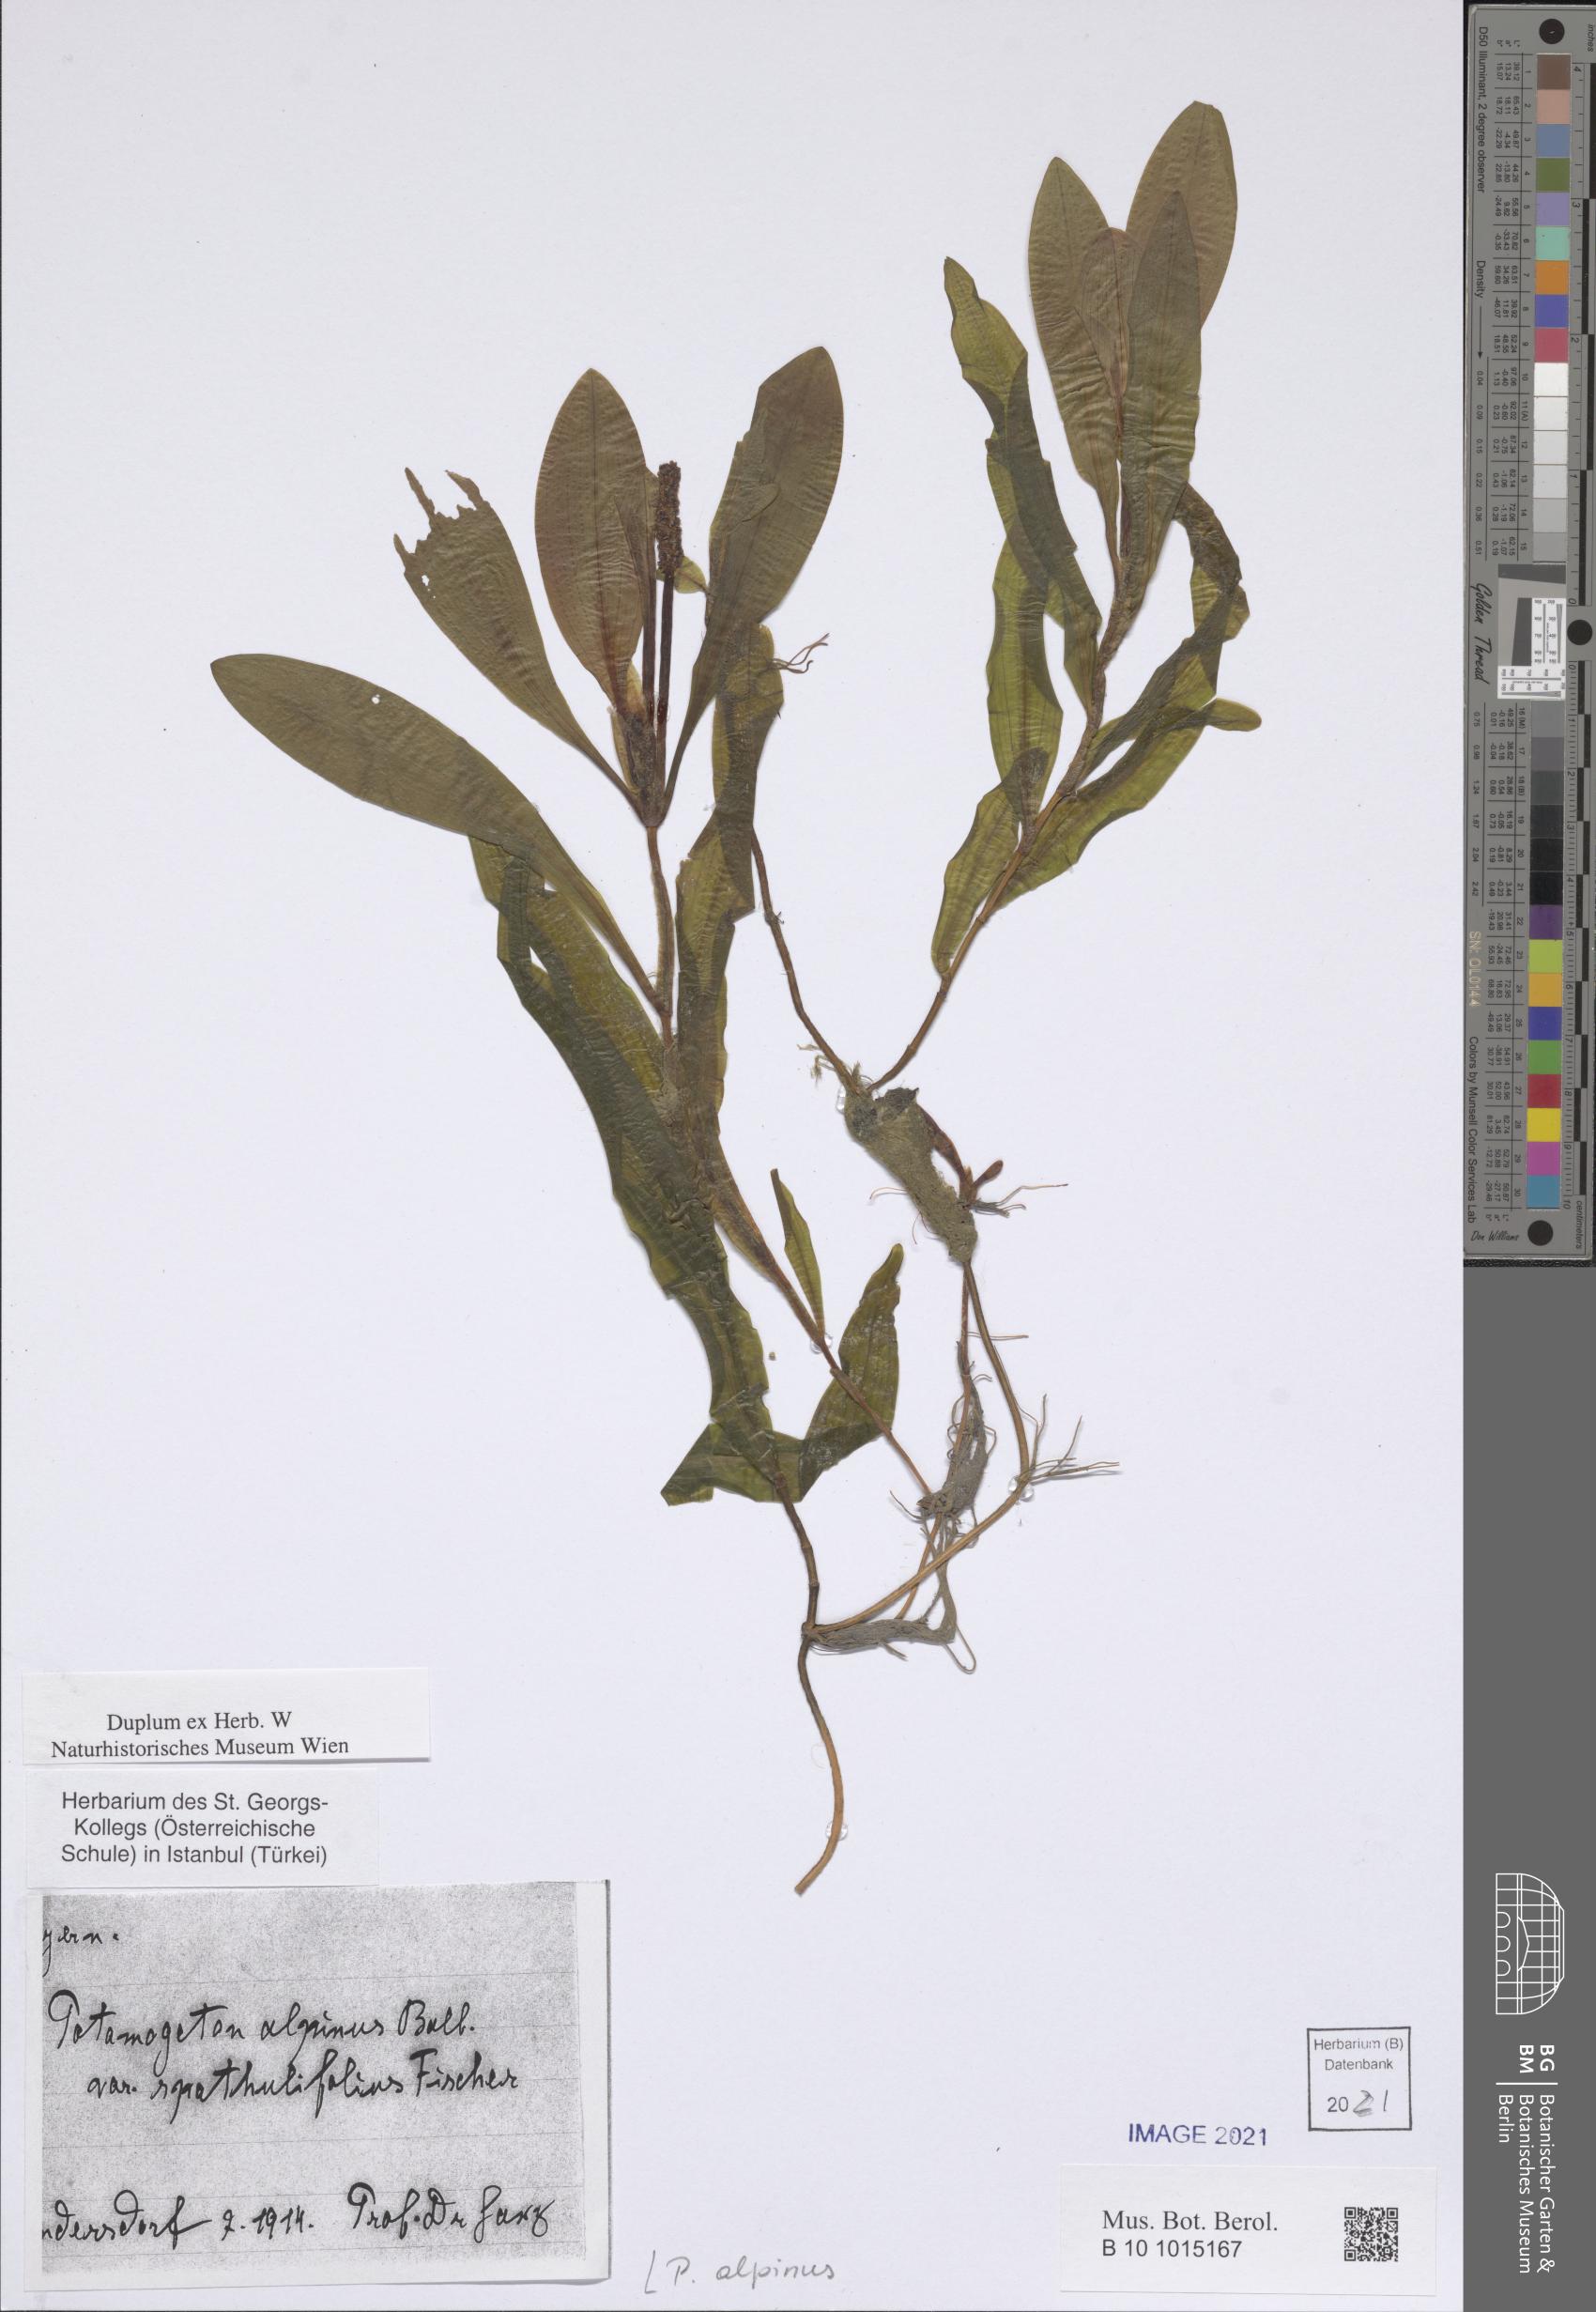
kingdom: Plantae
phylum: Tracheophyta
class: Liliopsida
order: Alismatales
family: Potamogetonaceae
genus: Potamogeton
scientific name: Potamogeton alpinus
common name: Red pondweed
